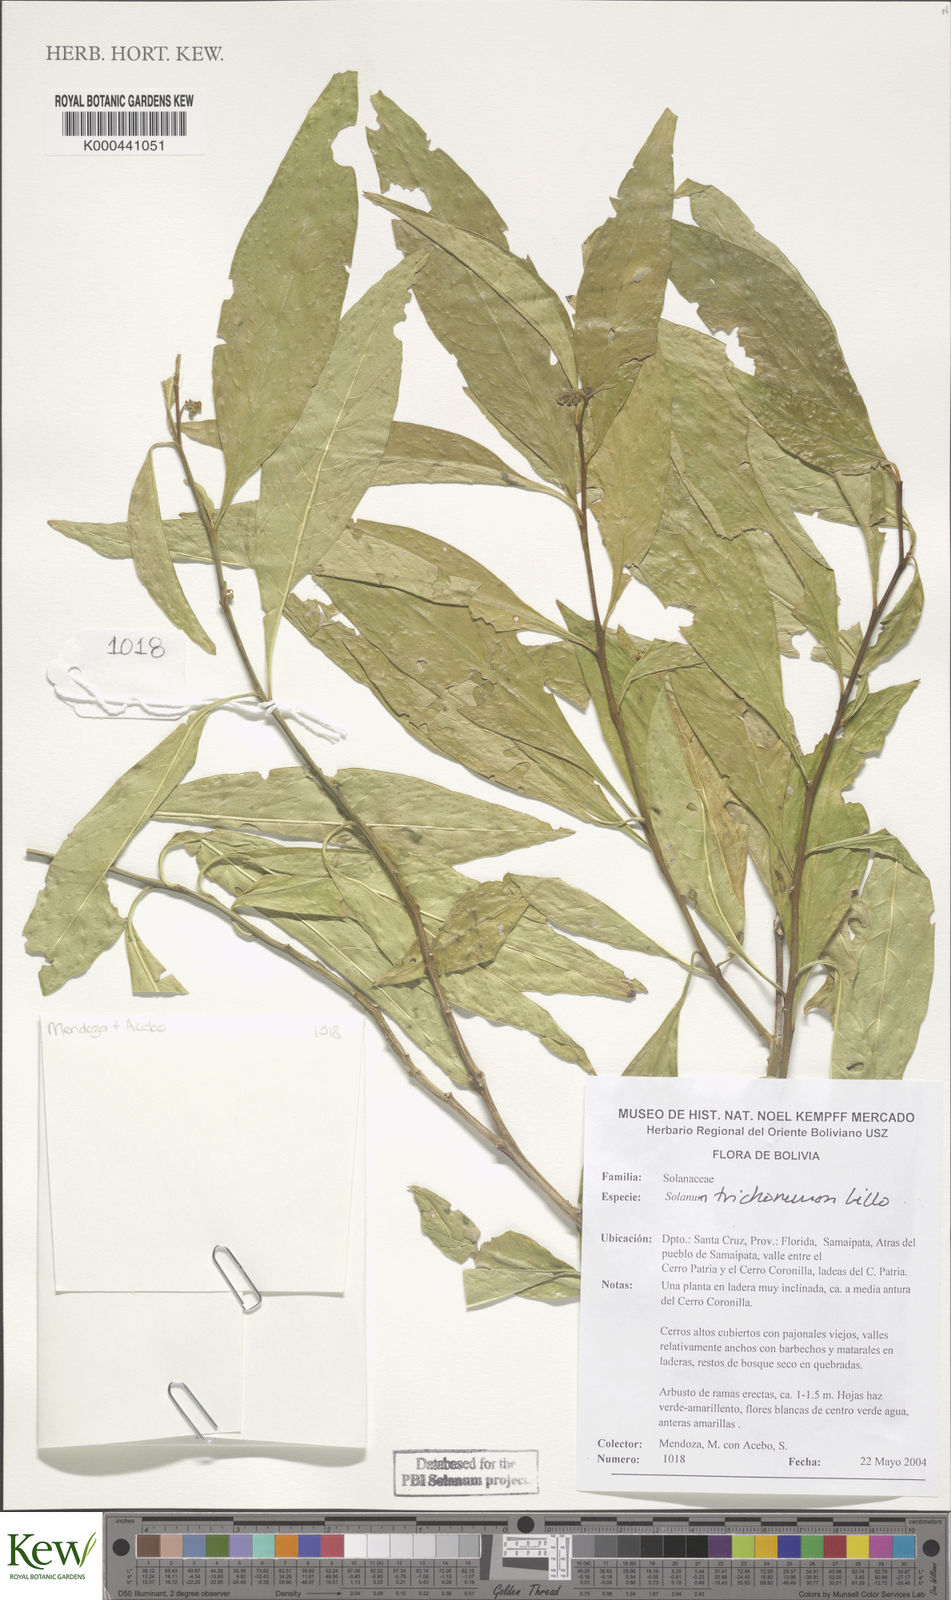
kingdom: Plantae
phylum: Tracheophyta
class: Magnoliopsida
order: Solanales
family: Solanaceae
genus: Solanum
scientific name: Solanum oblongum
